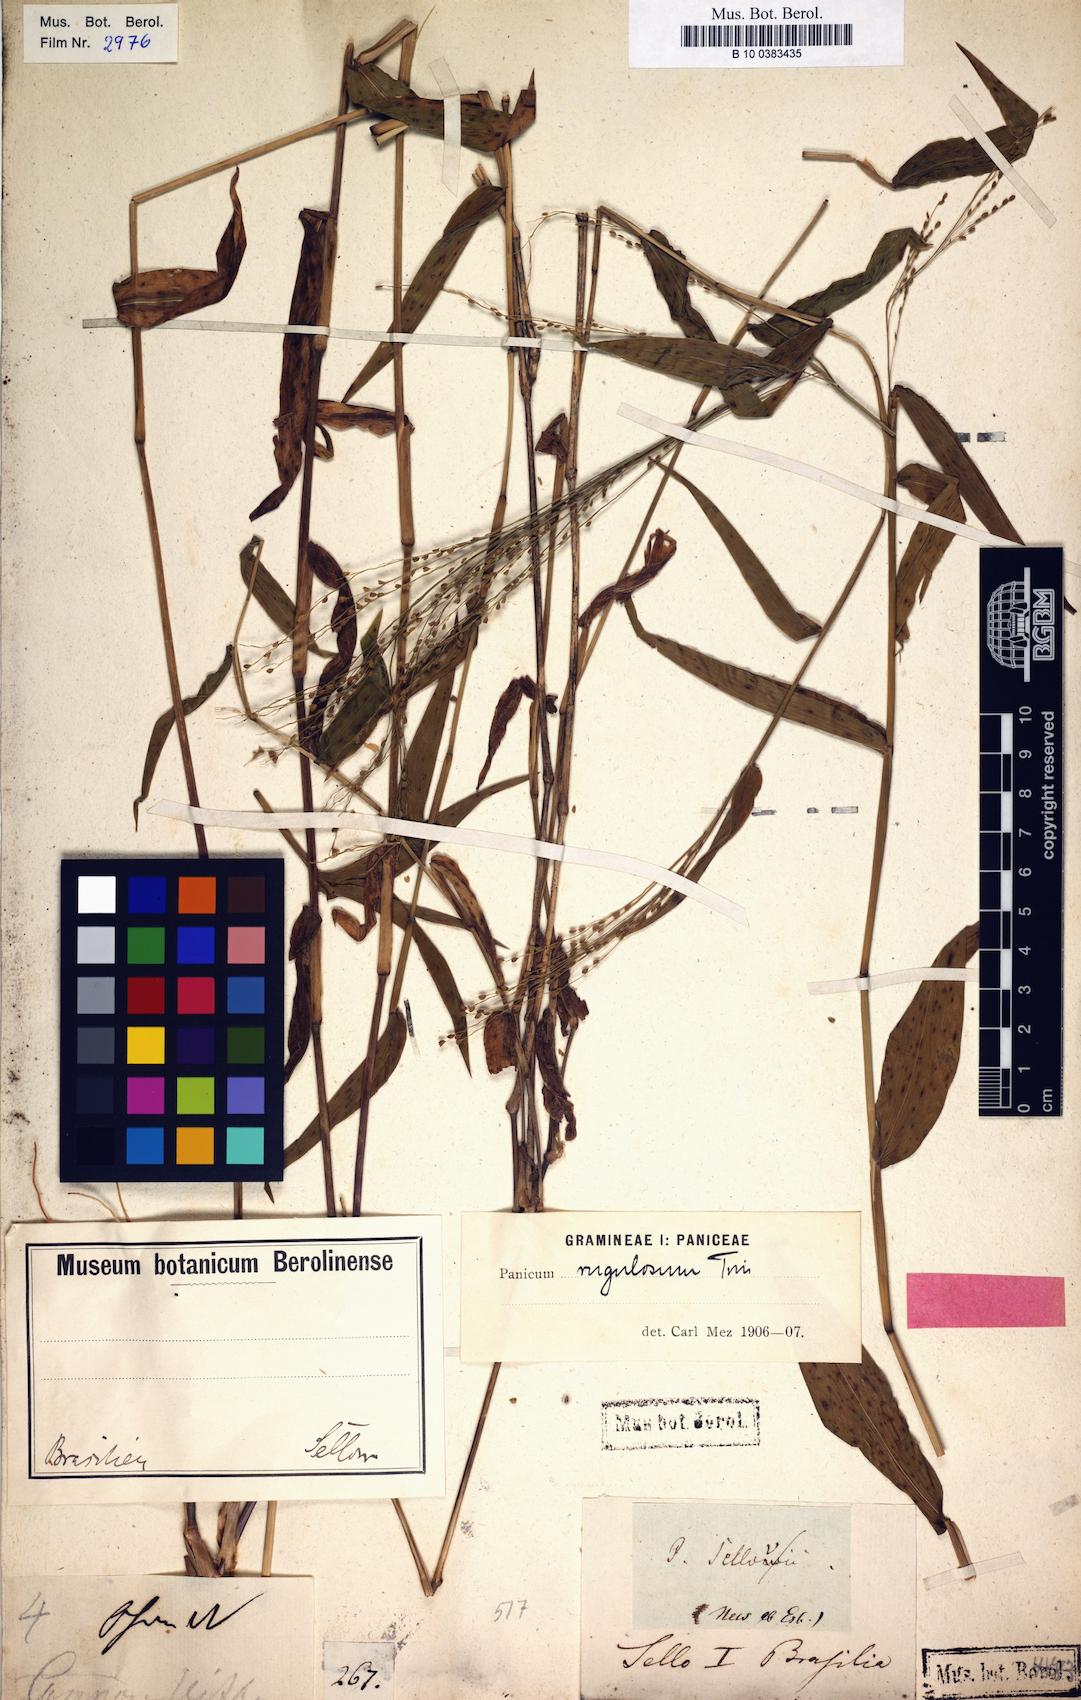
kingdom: Plantae
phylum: Tracheophyta
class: Liliopsida
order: Poales
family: Poaceae
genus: Panicum
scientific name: Panicum millegrana
